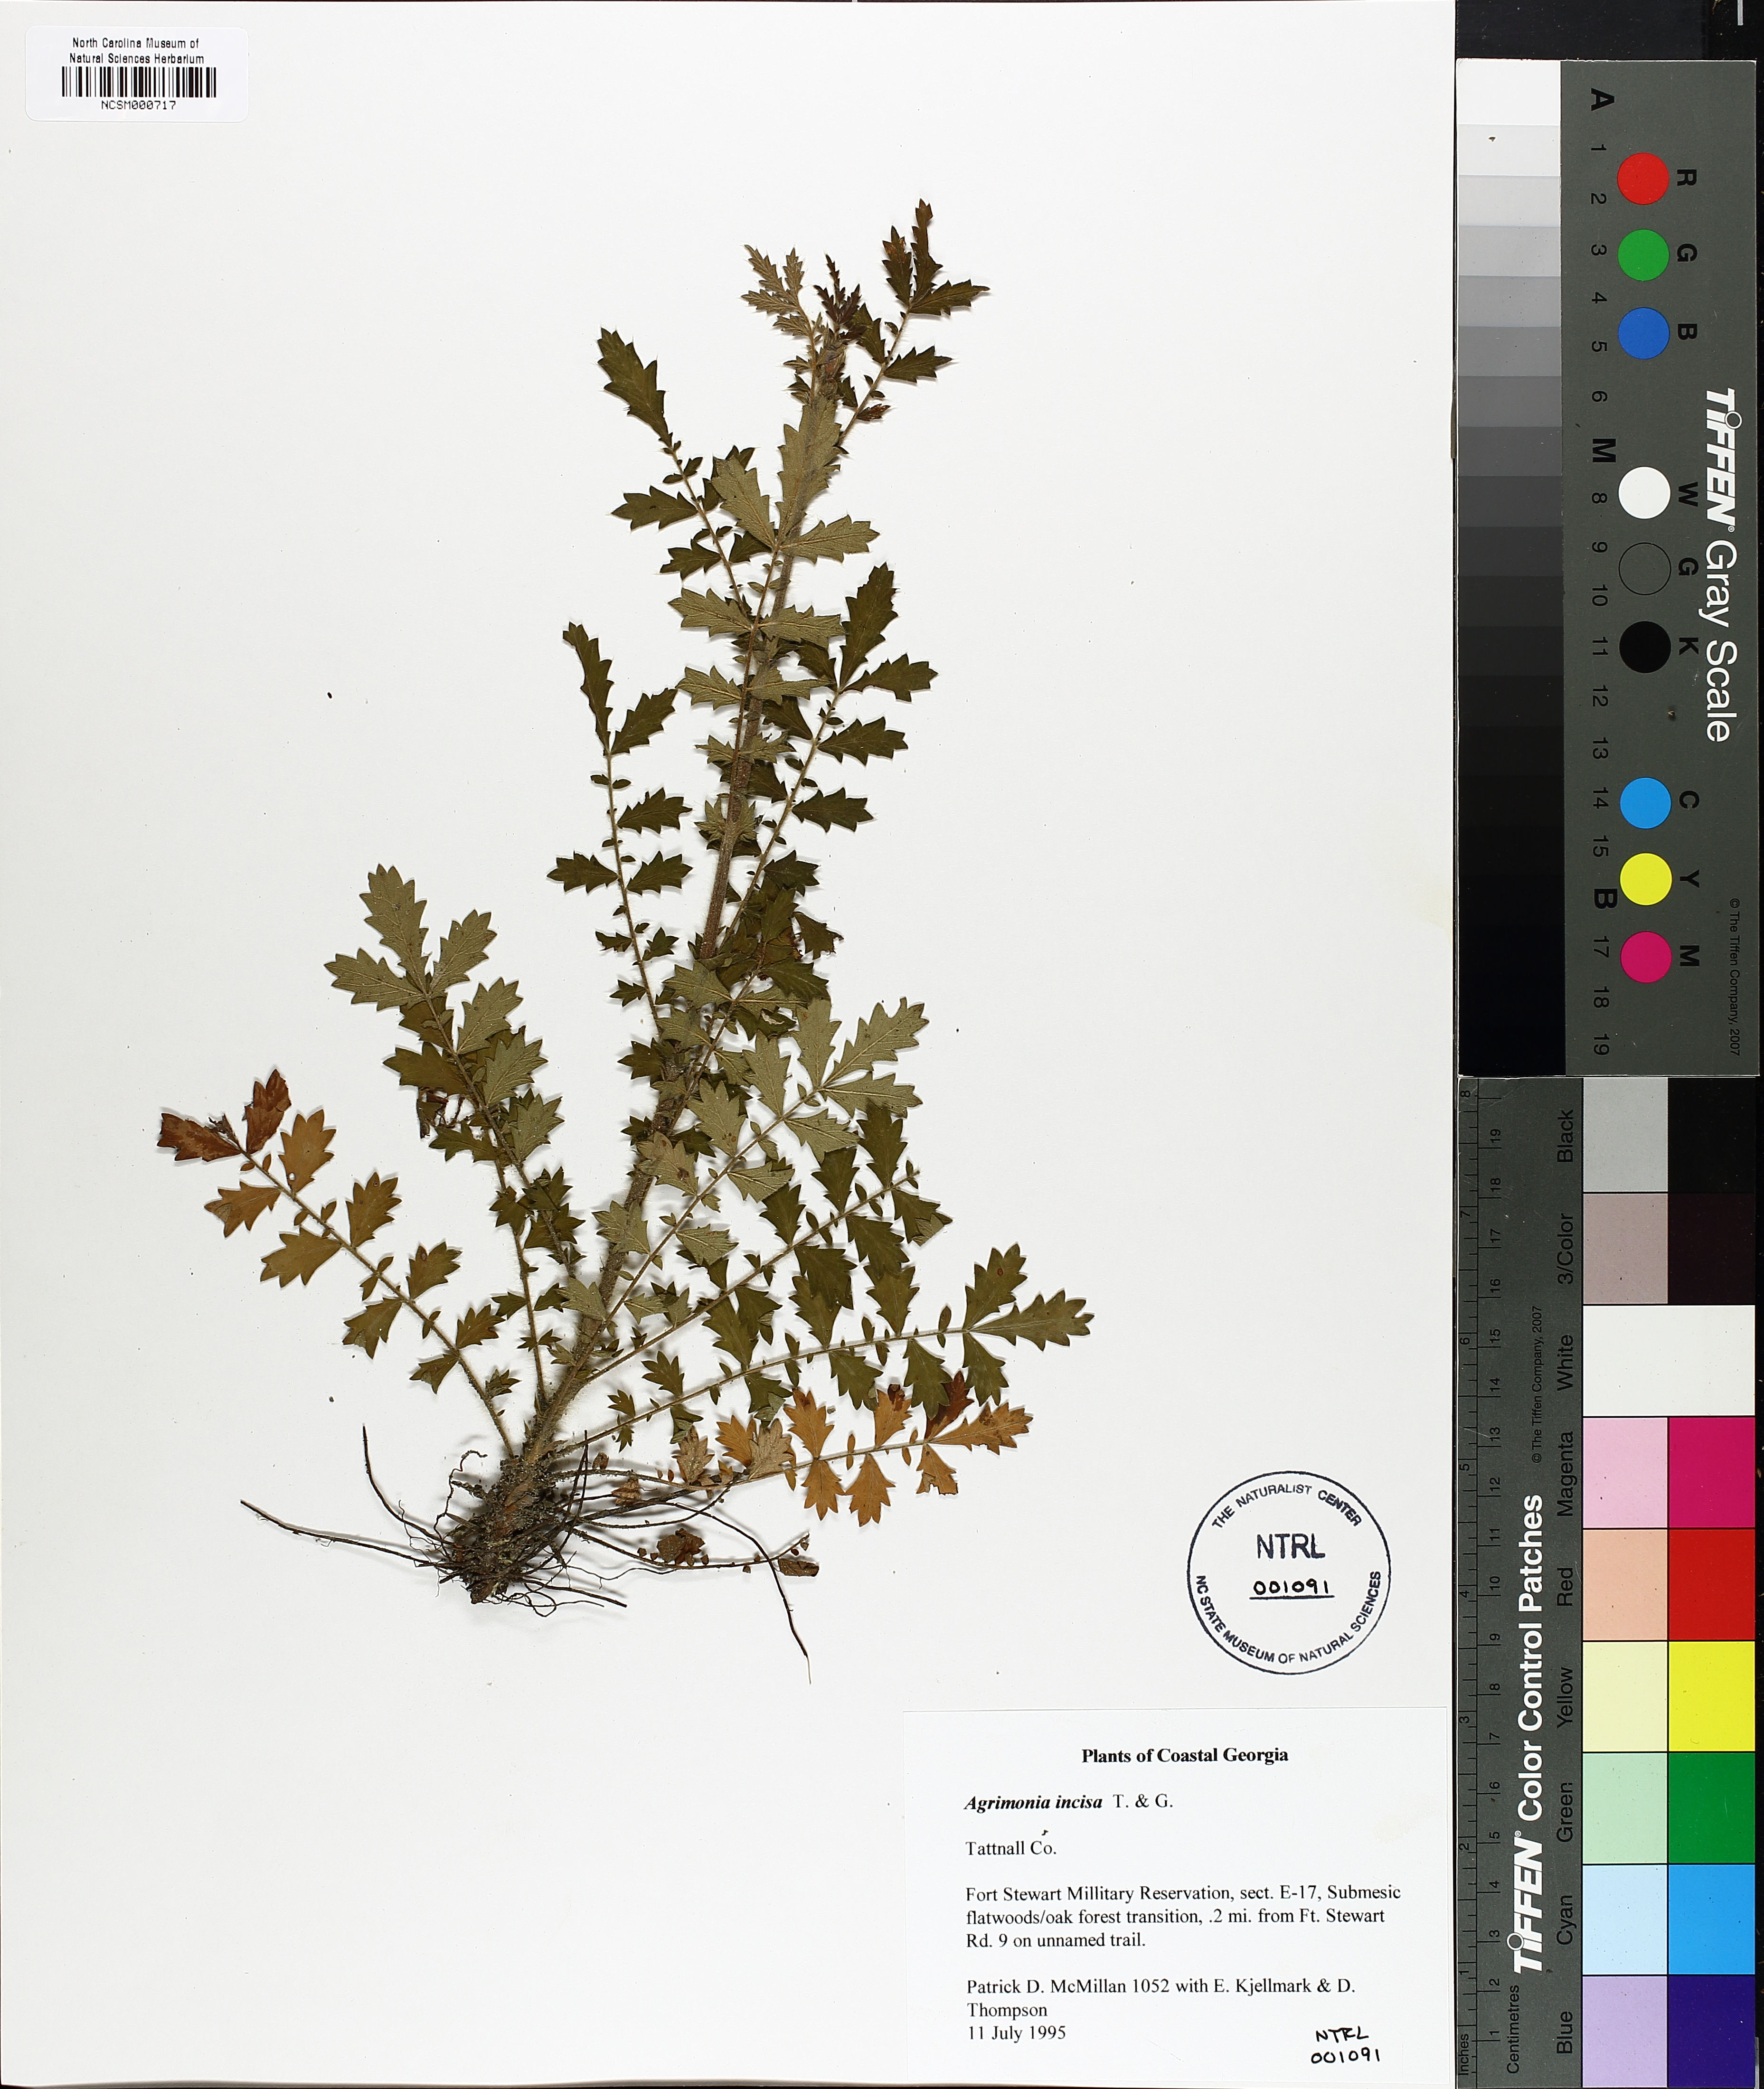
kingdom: Plantae
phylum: Tracheophyta
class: Magnoliopsida
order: Rosales
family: Rosaceae
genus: Agrimonia
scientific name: Agrimonia incisa
